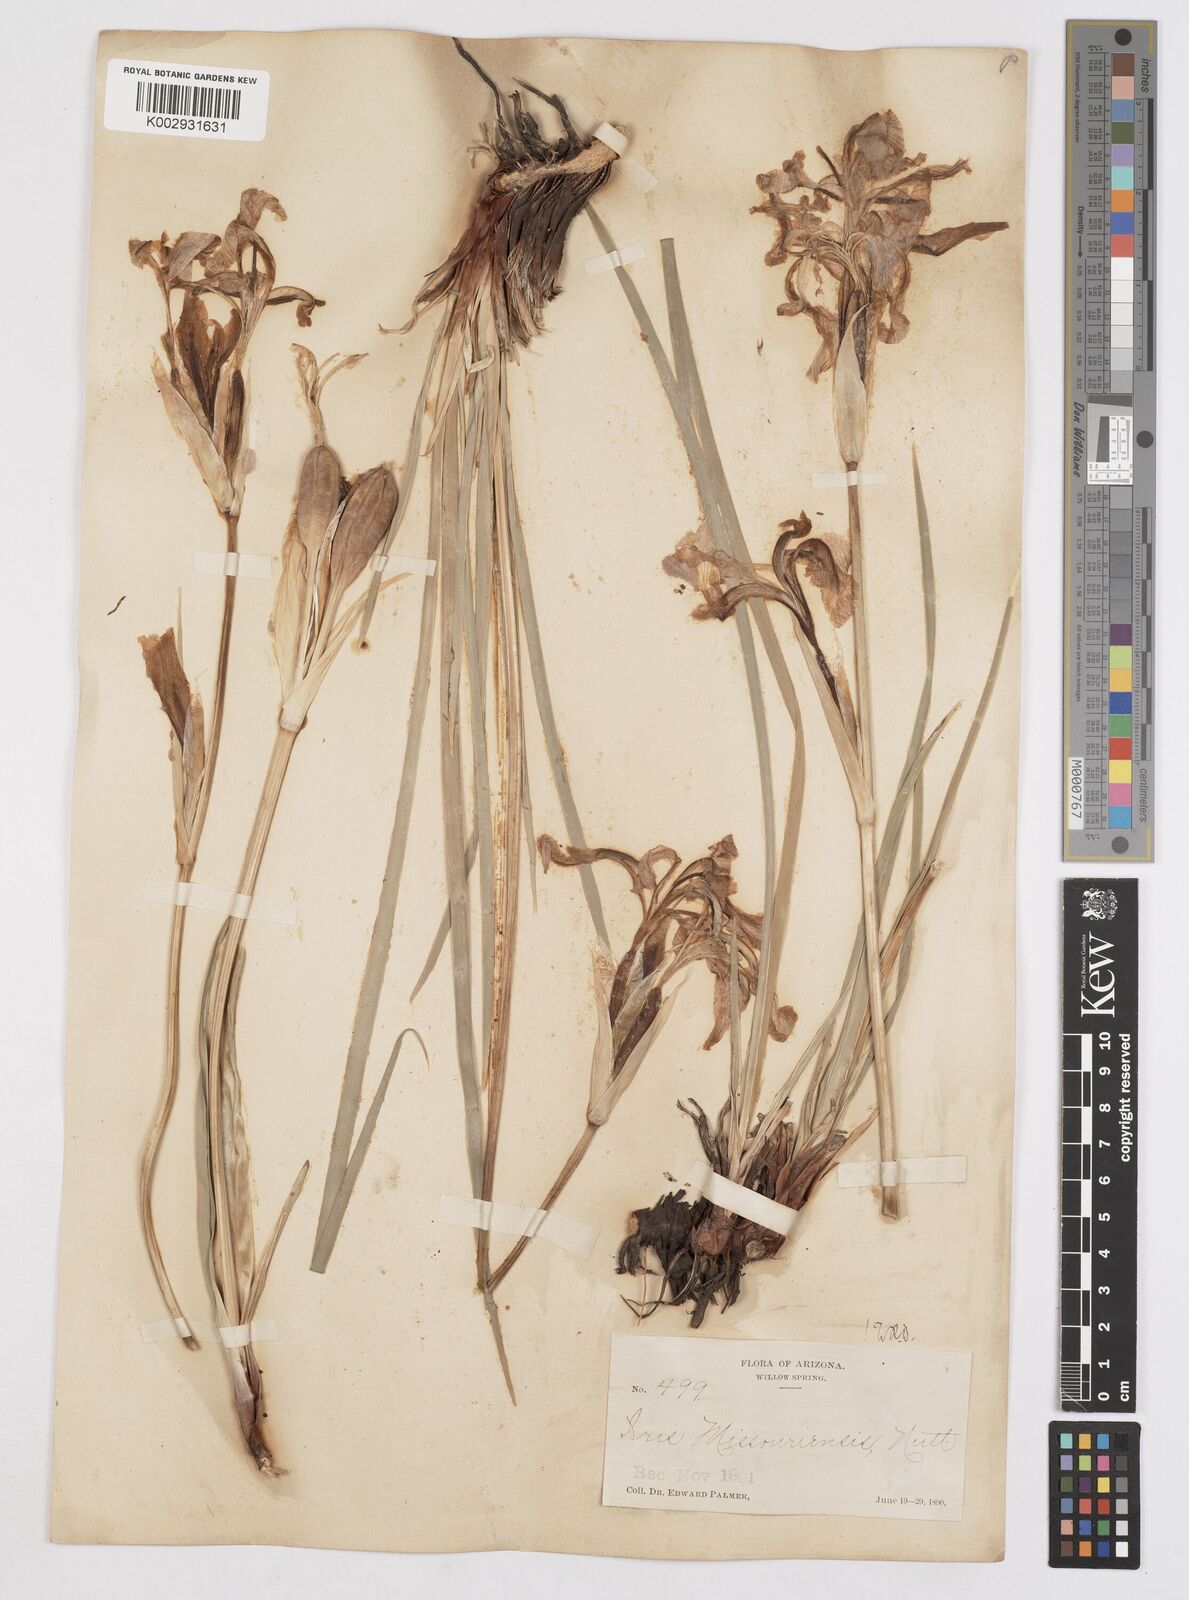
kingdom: Plantae
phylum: Tracheophyta
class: Liliopsida
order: Asparagales
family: Iridaceae
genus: Iris
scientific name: Iris missouriensis
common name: Rocky mountain iris
